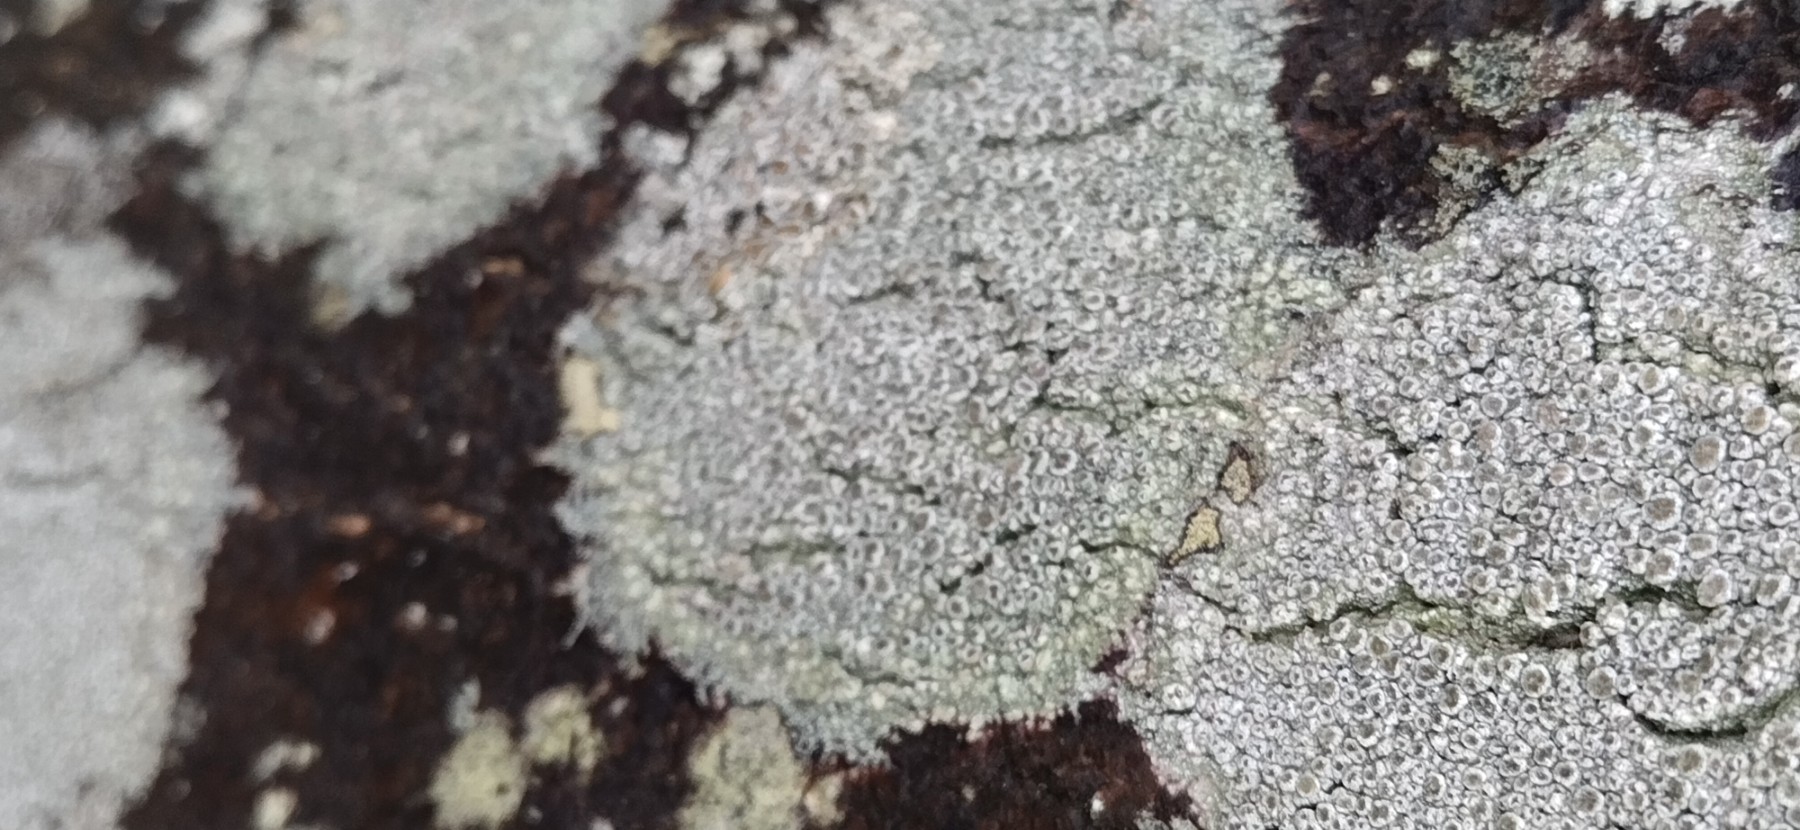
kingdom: Fungi
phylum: Ascomycota
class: Lecanoromycetes
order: Lecanorales
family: Lecanoraceae
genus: Lecanora
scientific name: Lecanora chlarotera
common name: brun kantskivelav
